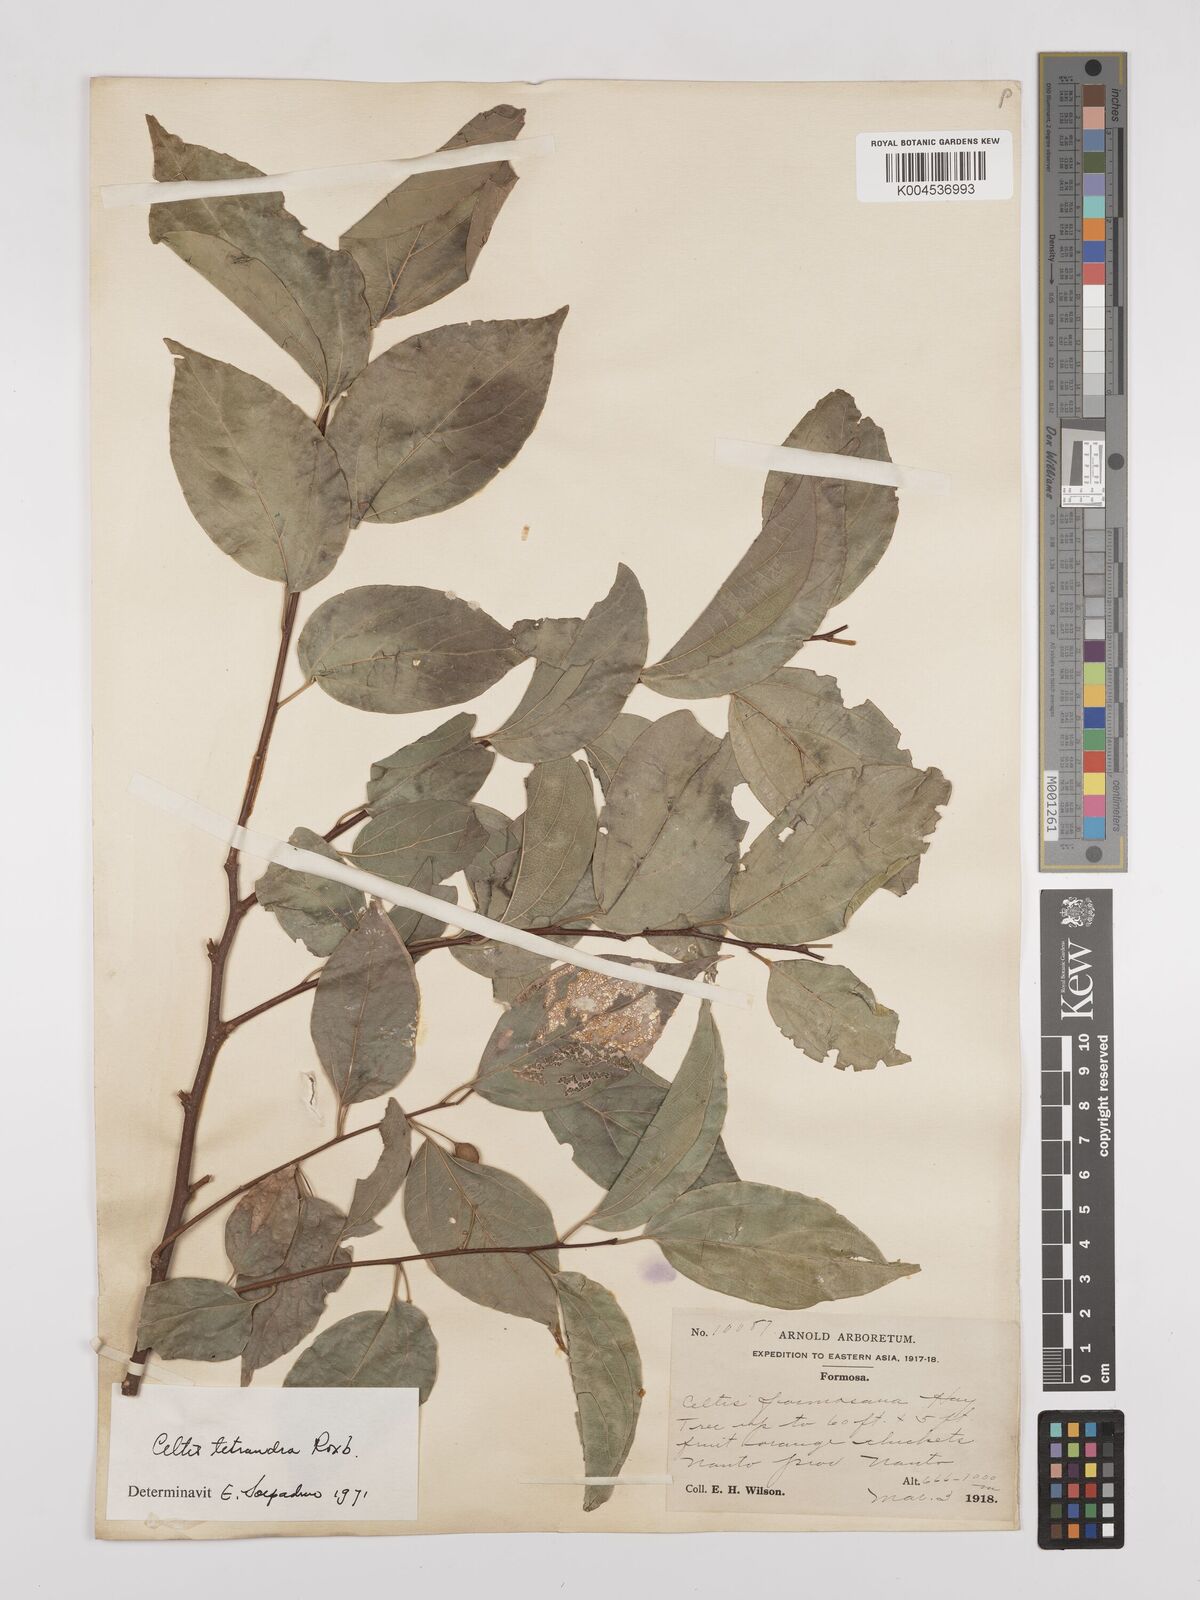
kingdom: Plantae
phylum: Tracheophyta
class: Magnoliopsida
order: Rosales
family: Cannabaceae
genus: Celtis
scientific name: Celtis tetrandra
